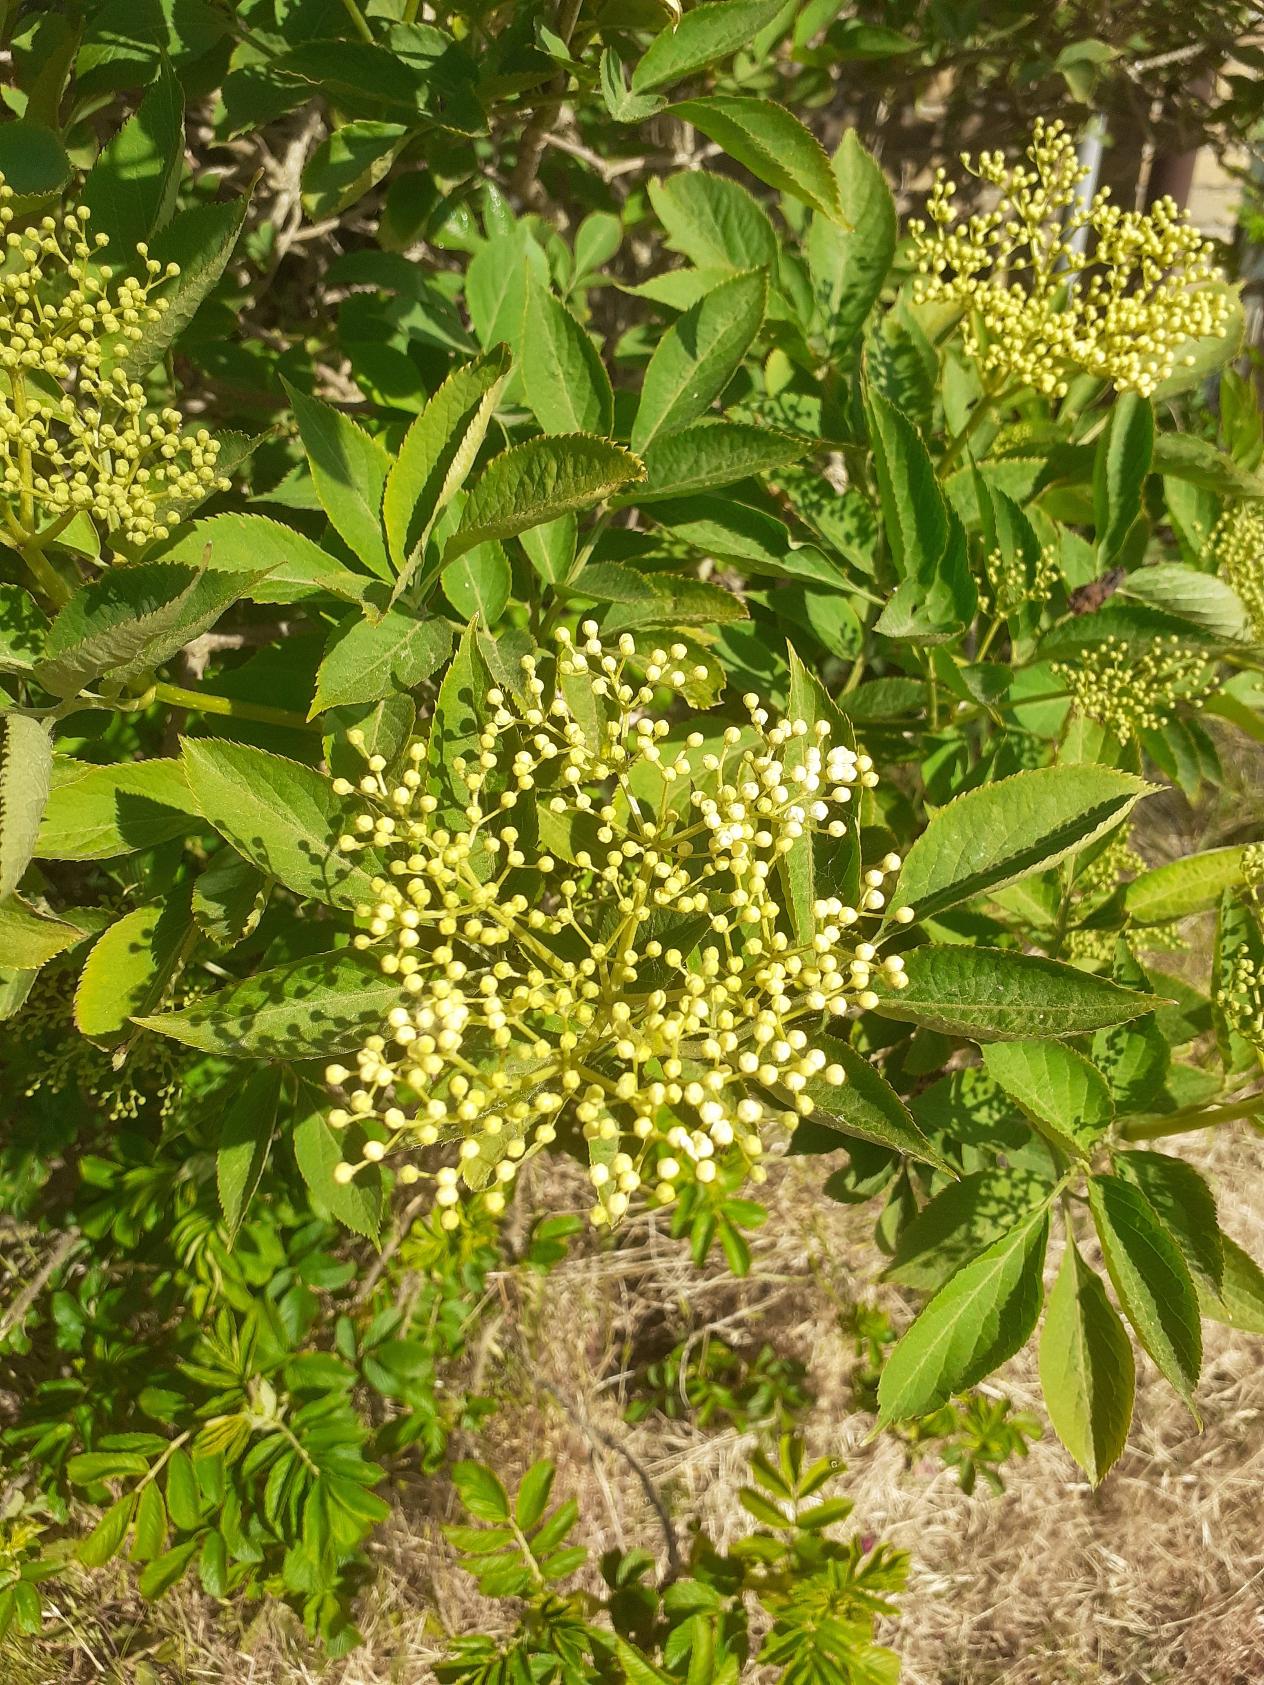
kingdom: Plantae
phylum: Tracheophyta
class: Magnoliopsida
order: Dipsacales
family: Viburnaceae
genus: Sambucus
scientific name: Sambucus nigra
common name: Almindelig hyld
